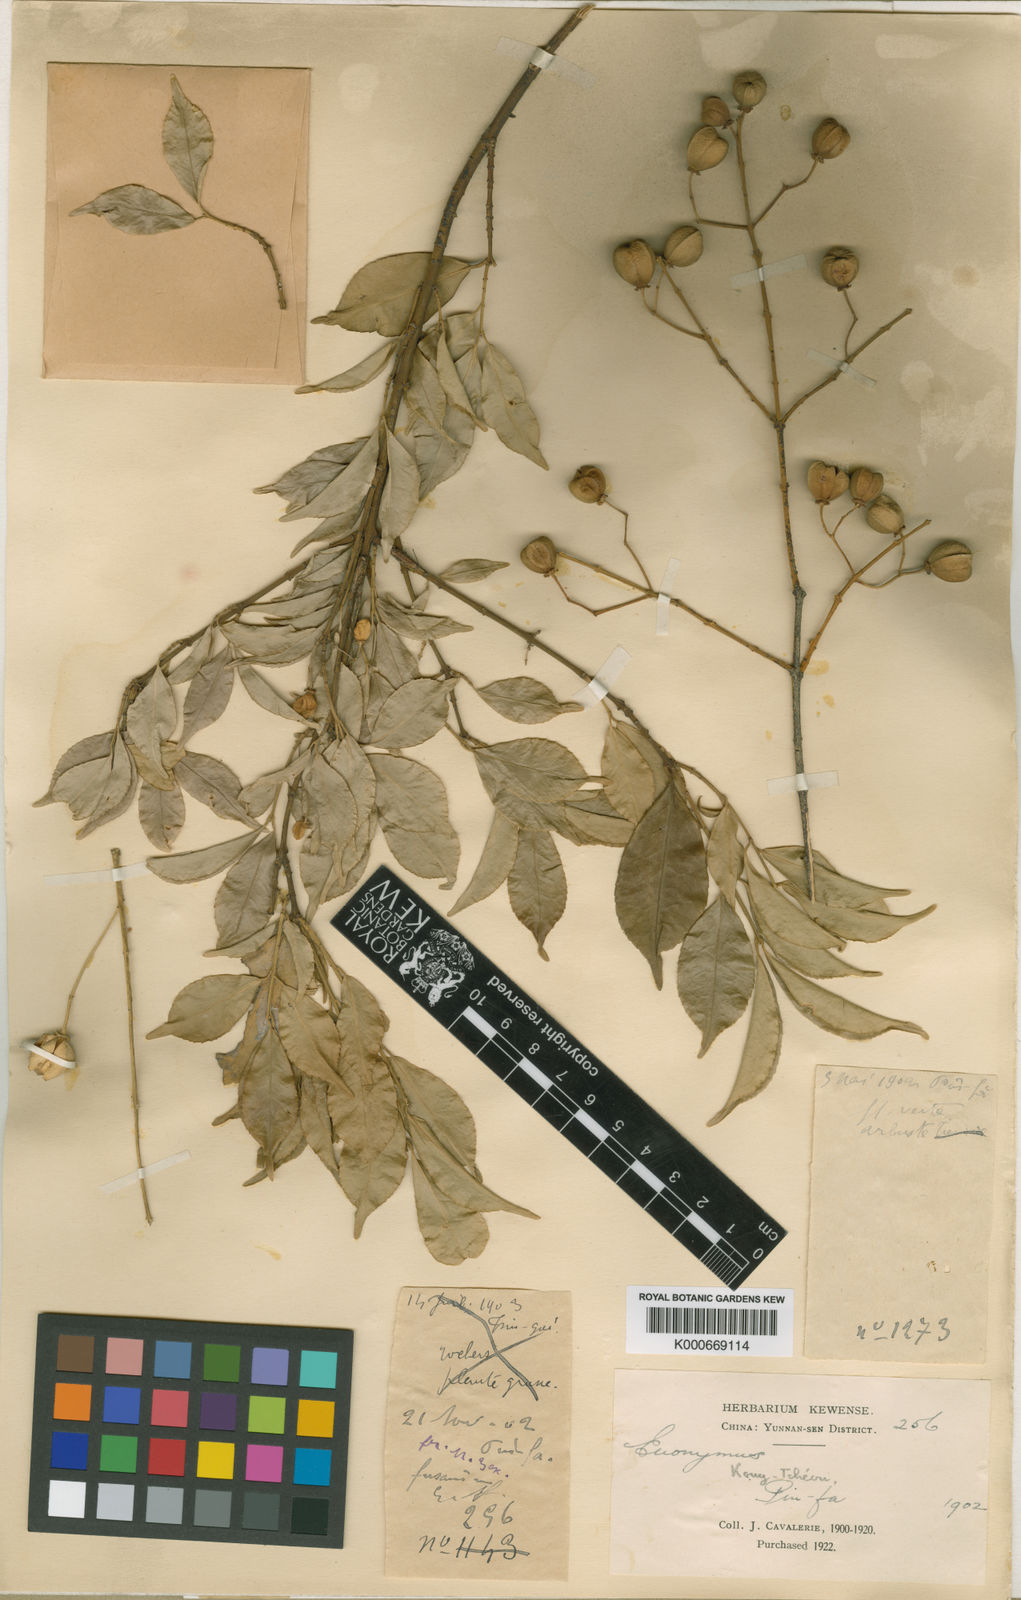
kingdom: Plantae
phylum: Tracheophyta
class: Magnoliopsida
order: Celastrales
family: Celastraceae
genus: Euonymus
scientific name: Euonymus
